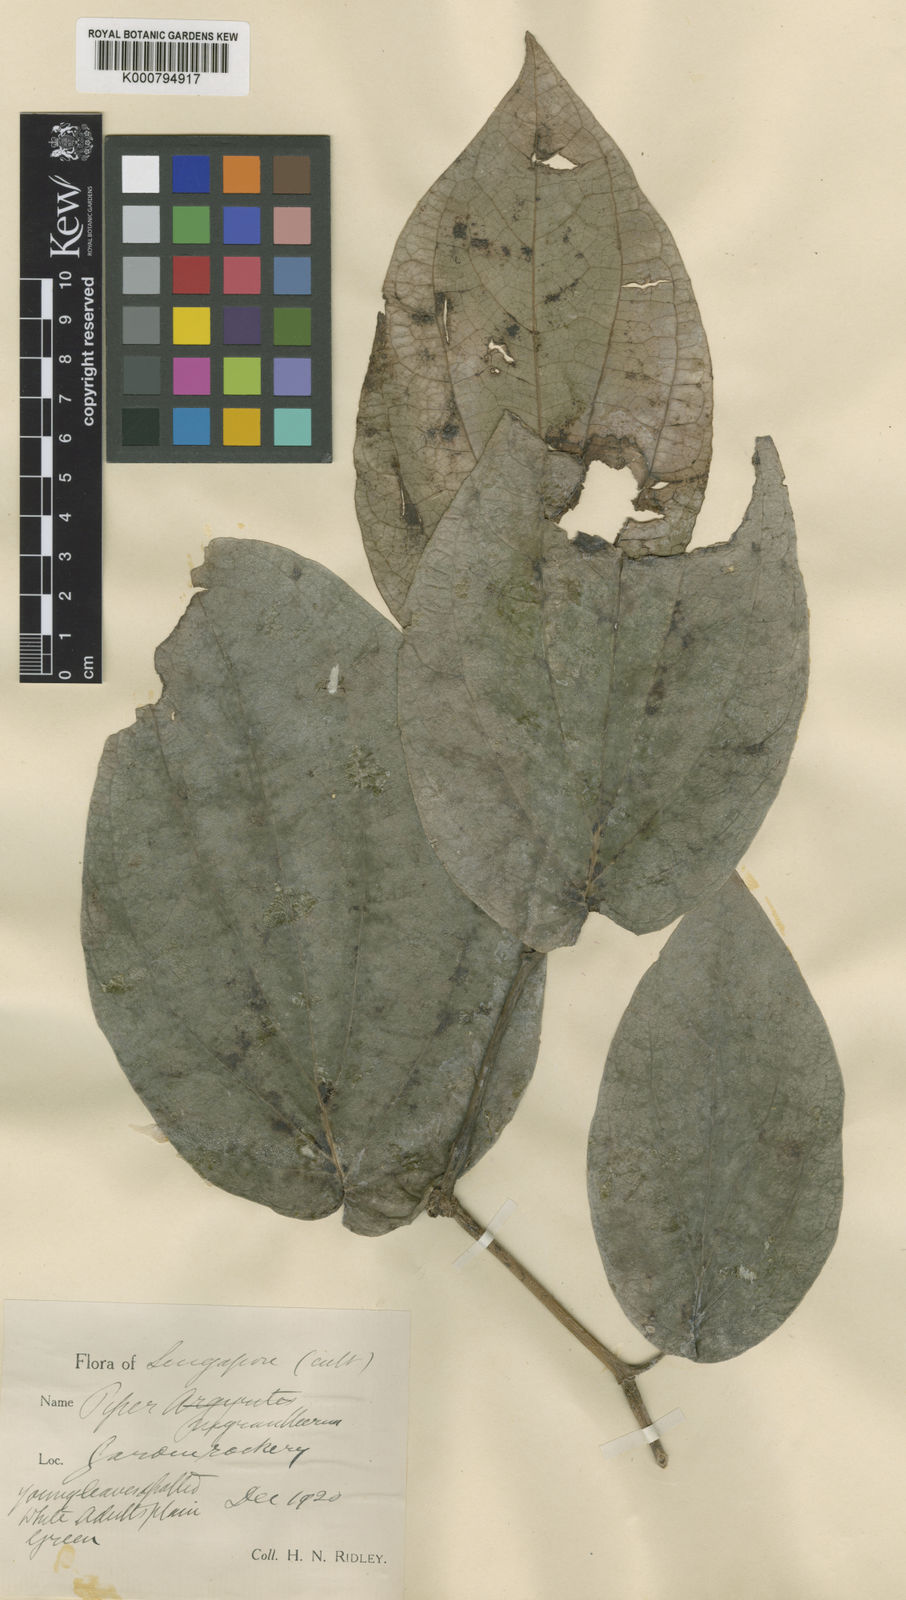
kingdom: Plantae
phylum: Tracheophyta
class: Magnoliopsida
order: Piperales
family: Piperaceae
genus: Piper
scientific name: Piper
